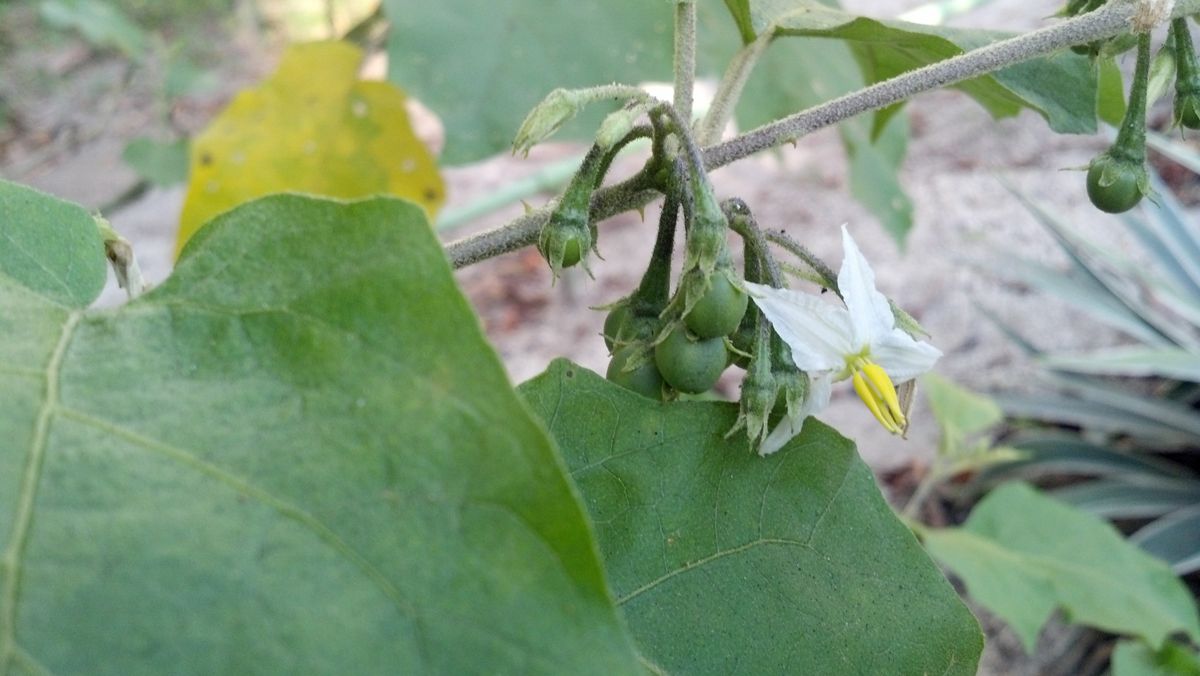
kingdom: Plantae
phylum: Tracheophyta
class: Magnoliopsida
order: Solanales
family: Solanaceae
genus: Solanum
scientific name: Solanum torvum
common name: Turkey berry
